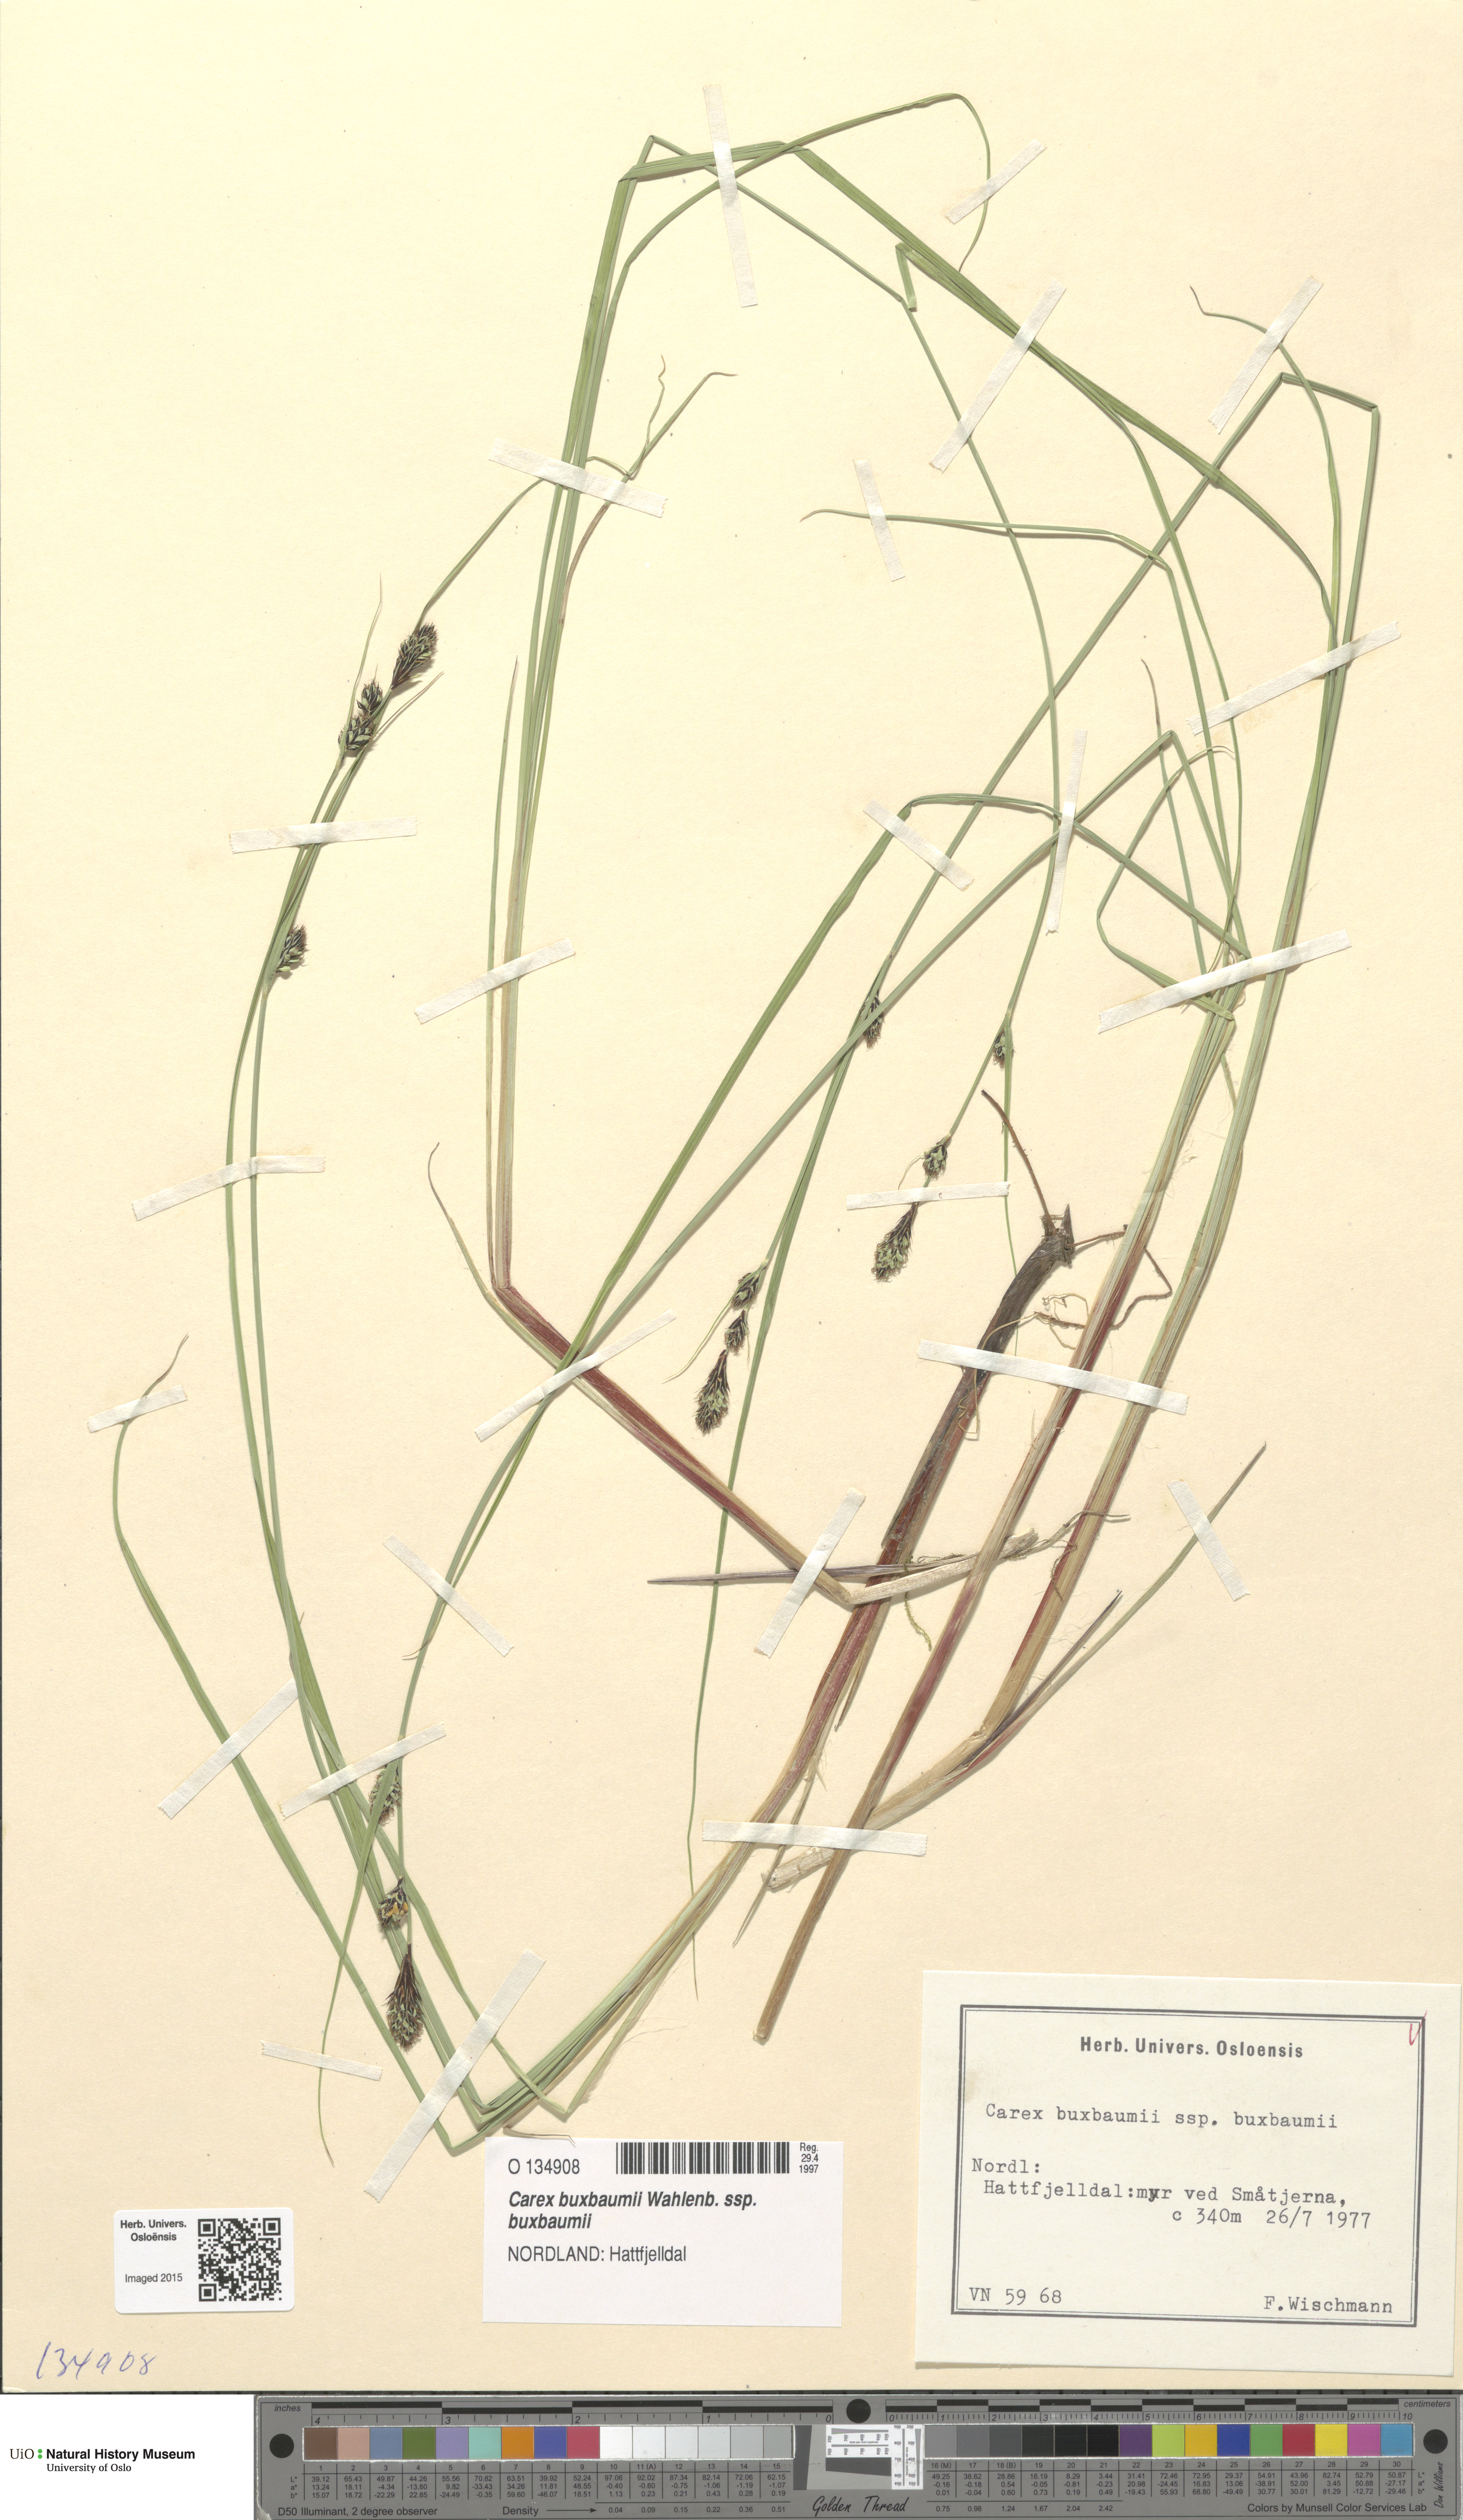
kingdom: Plantae
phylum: Tracheophyta
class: Liliopsida
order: Poales
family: Cyperaceae
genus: Carex
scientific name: Carex buxbaumii
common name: Club sedge
